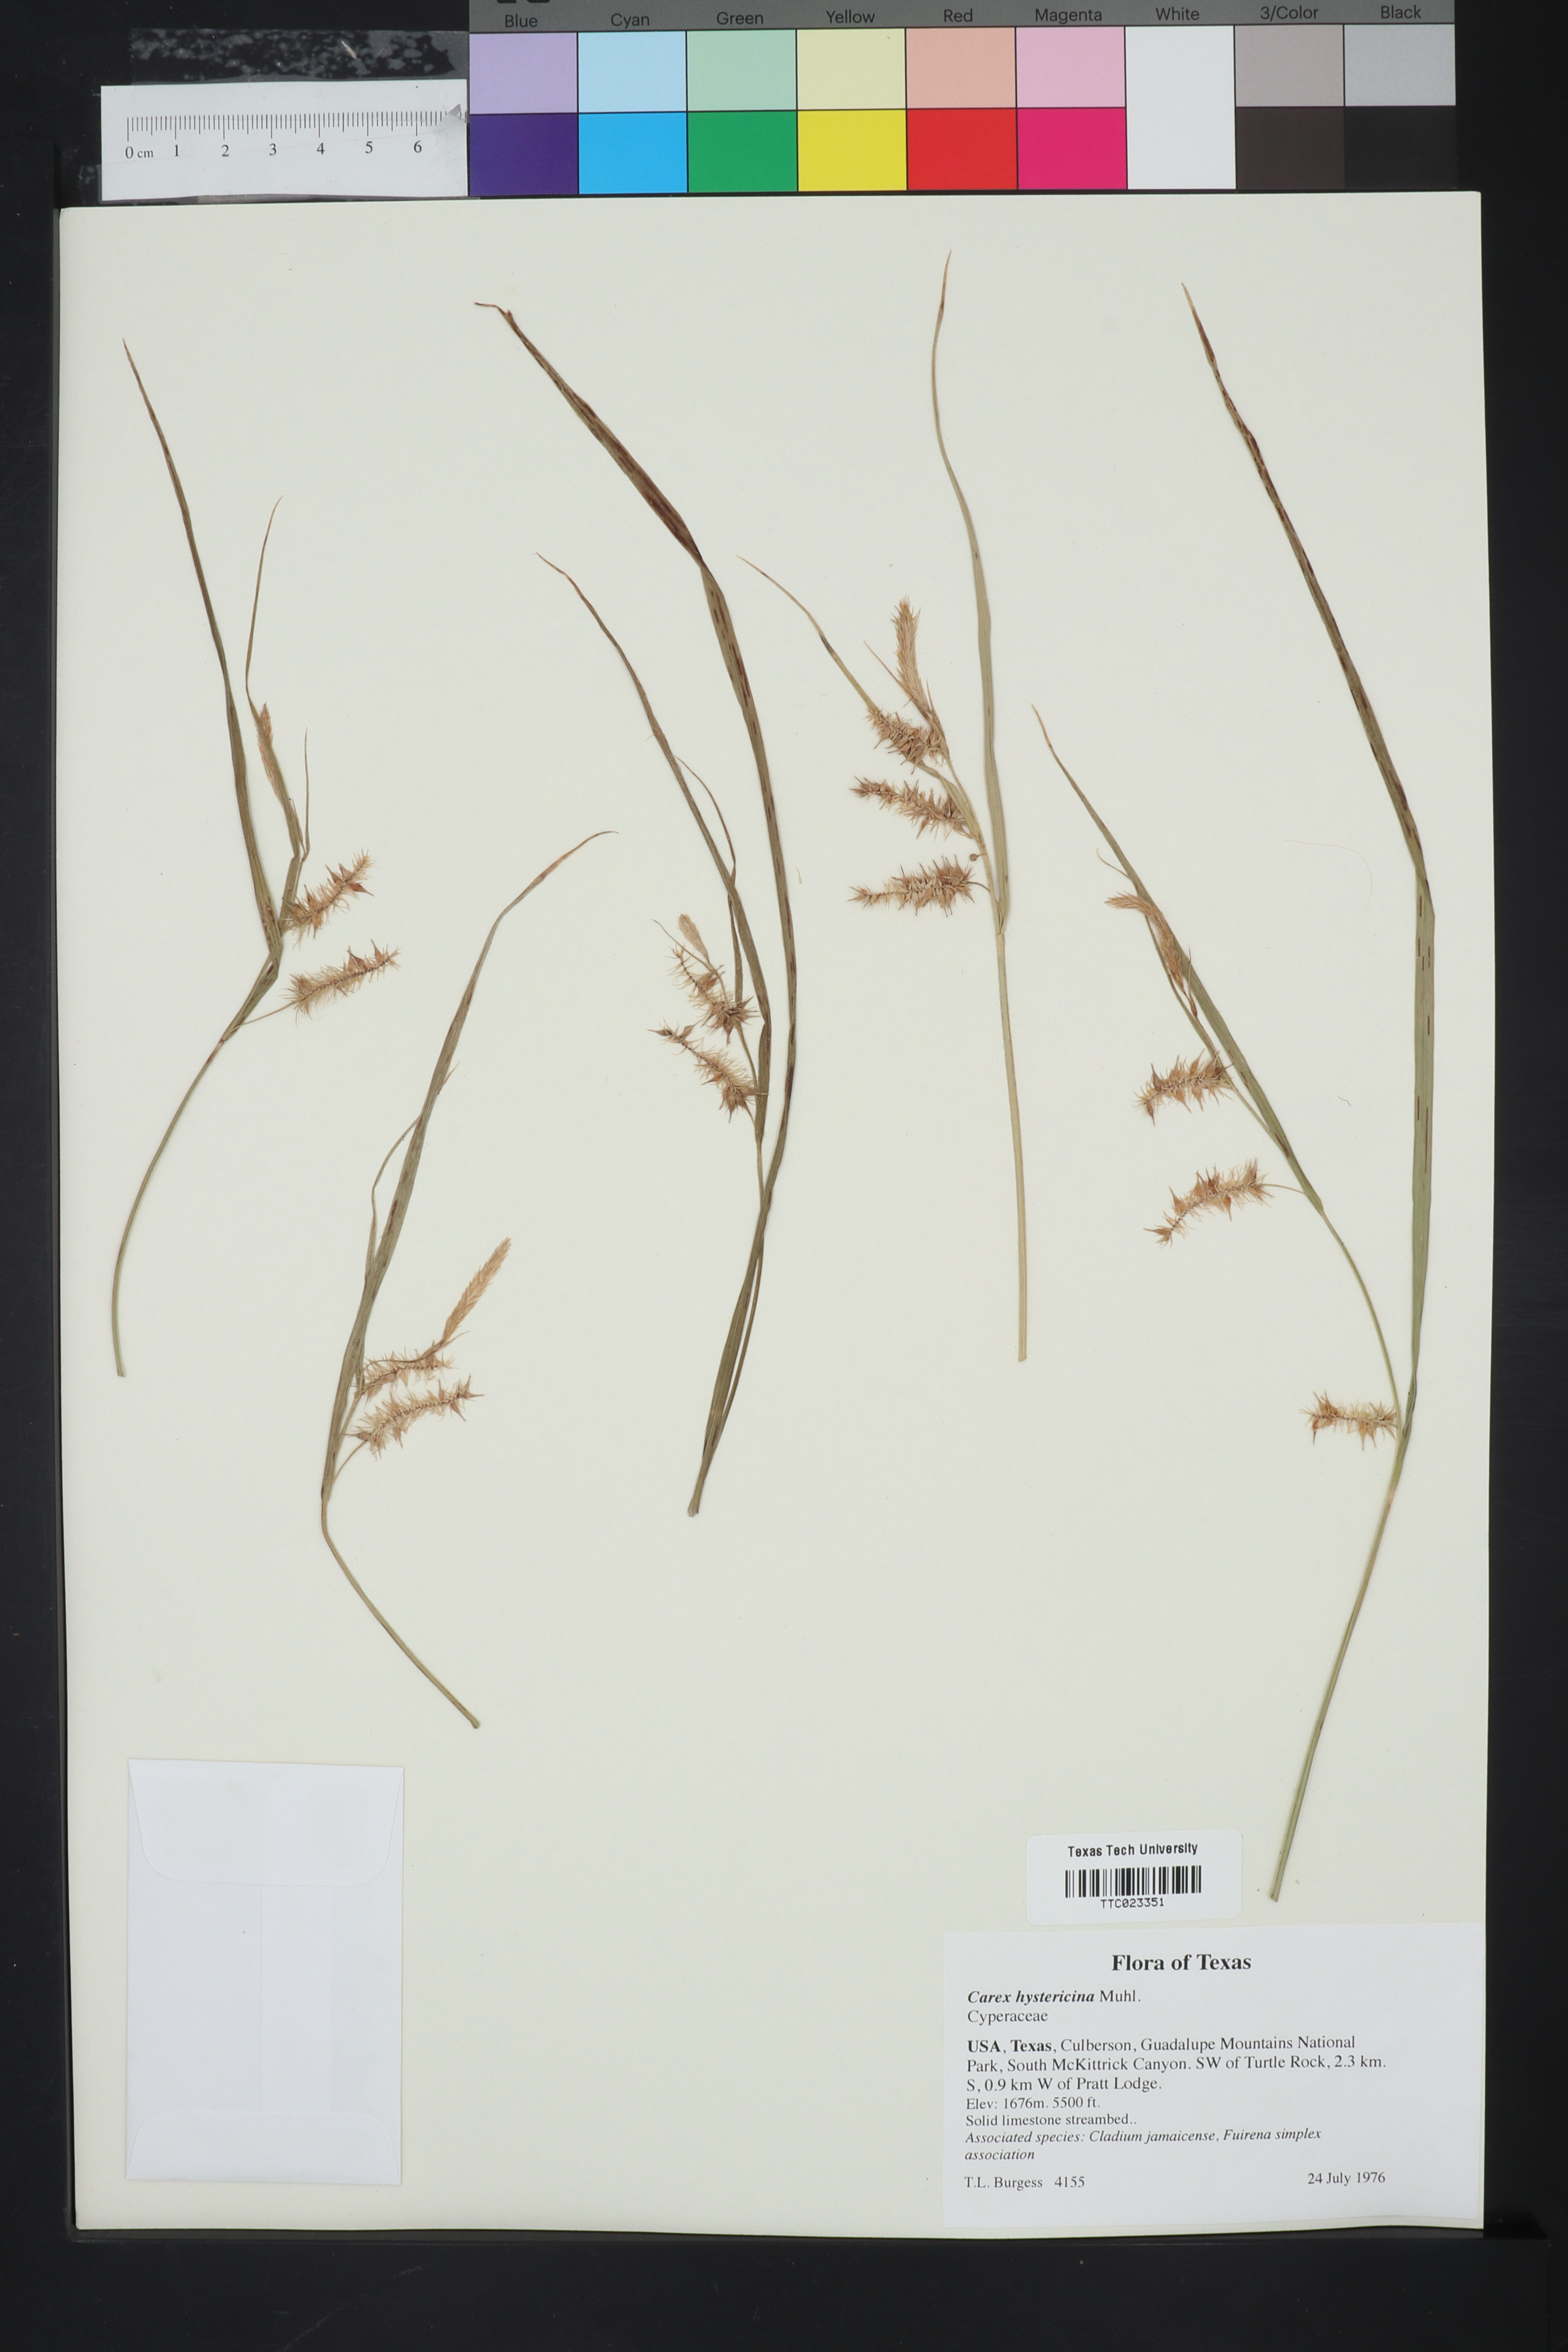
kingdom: Plantae
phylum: Tracheophyta
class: Liliopsida
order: Poales
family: Cyperaceae
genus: Carex
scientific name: Carex hystericina
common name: Bottlebrush sedge
